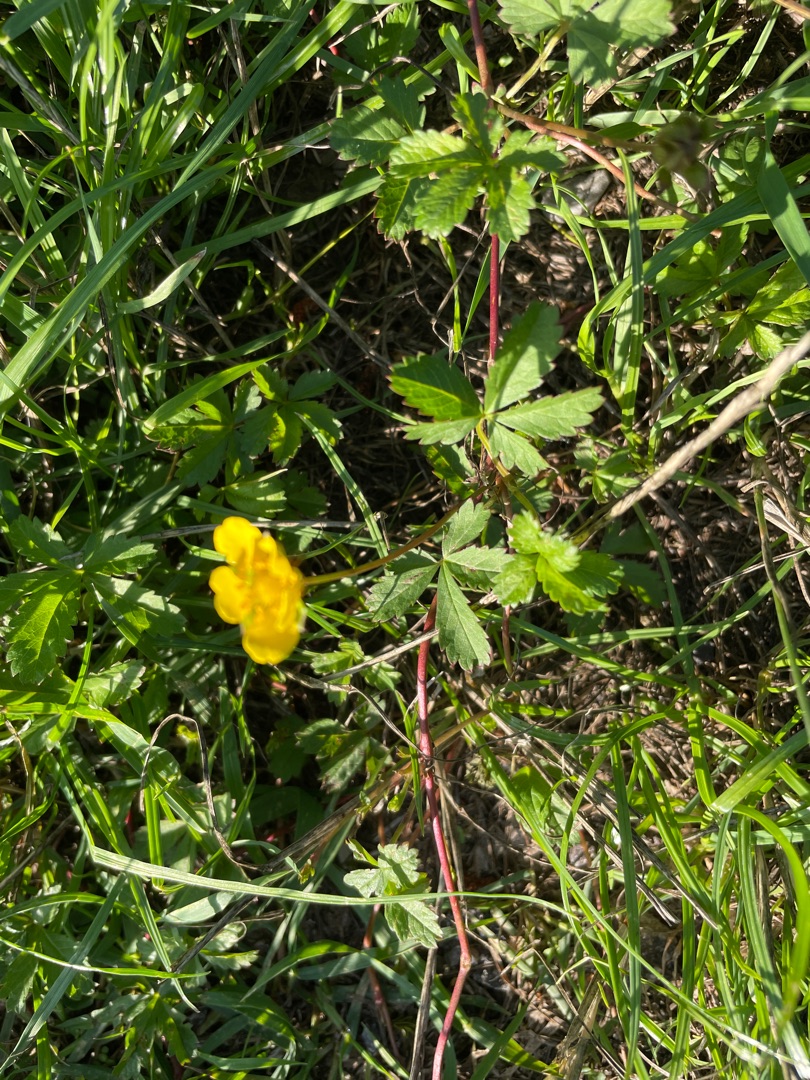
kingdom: Plantae
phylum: Tracheophyta
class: Magnoliopsida
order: Rosales
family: Rosaceae
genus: Potentilla
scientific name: Potentilla reptans
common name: Krybende potentil
